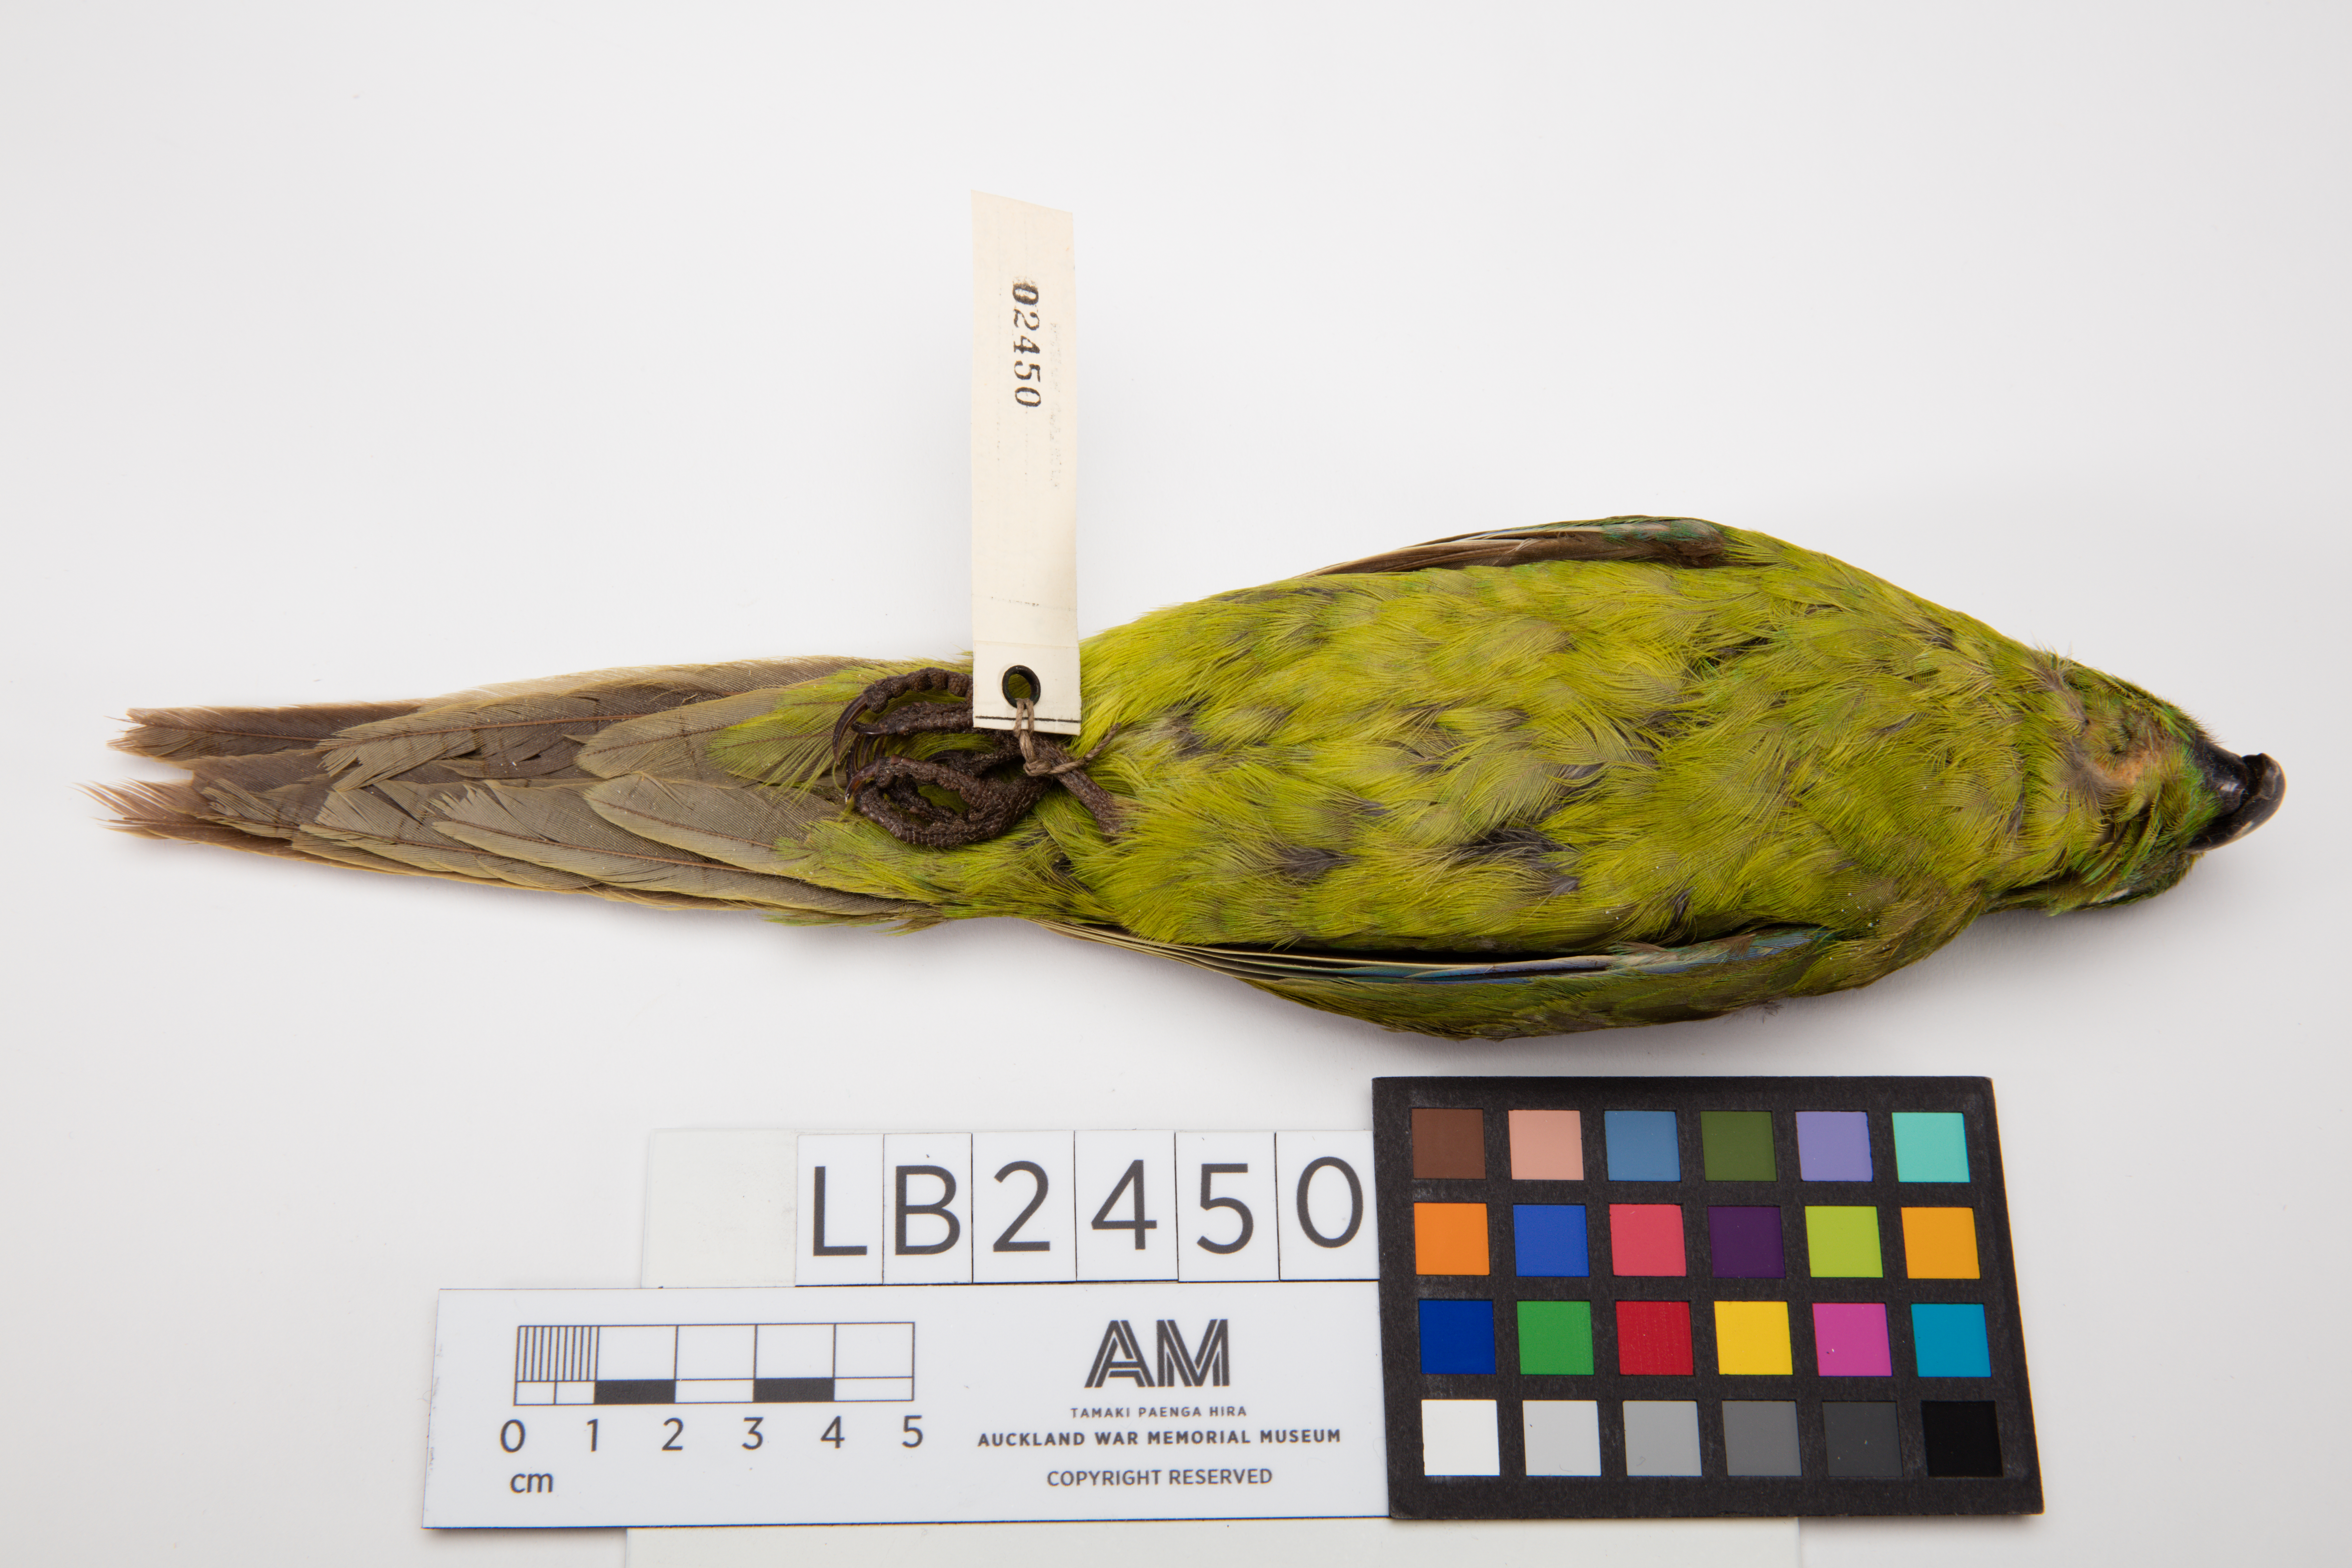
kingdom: Animalia
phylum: Chordata
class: Aves
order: Psittaciformes
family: Psittacidae
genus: Cyanoramphus
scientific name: Cyanoramphus unicolor
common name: Antipodes parakeet
